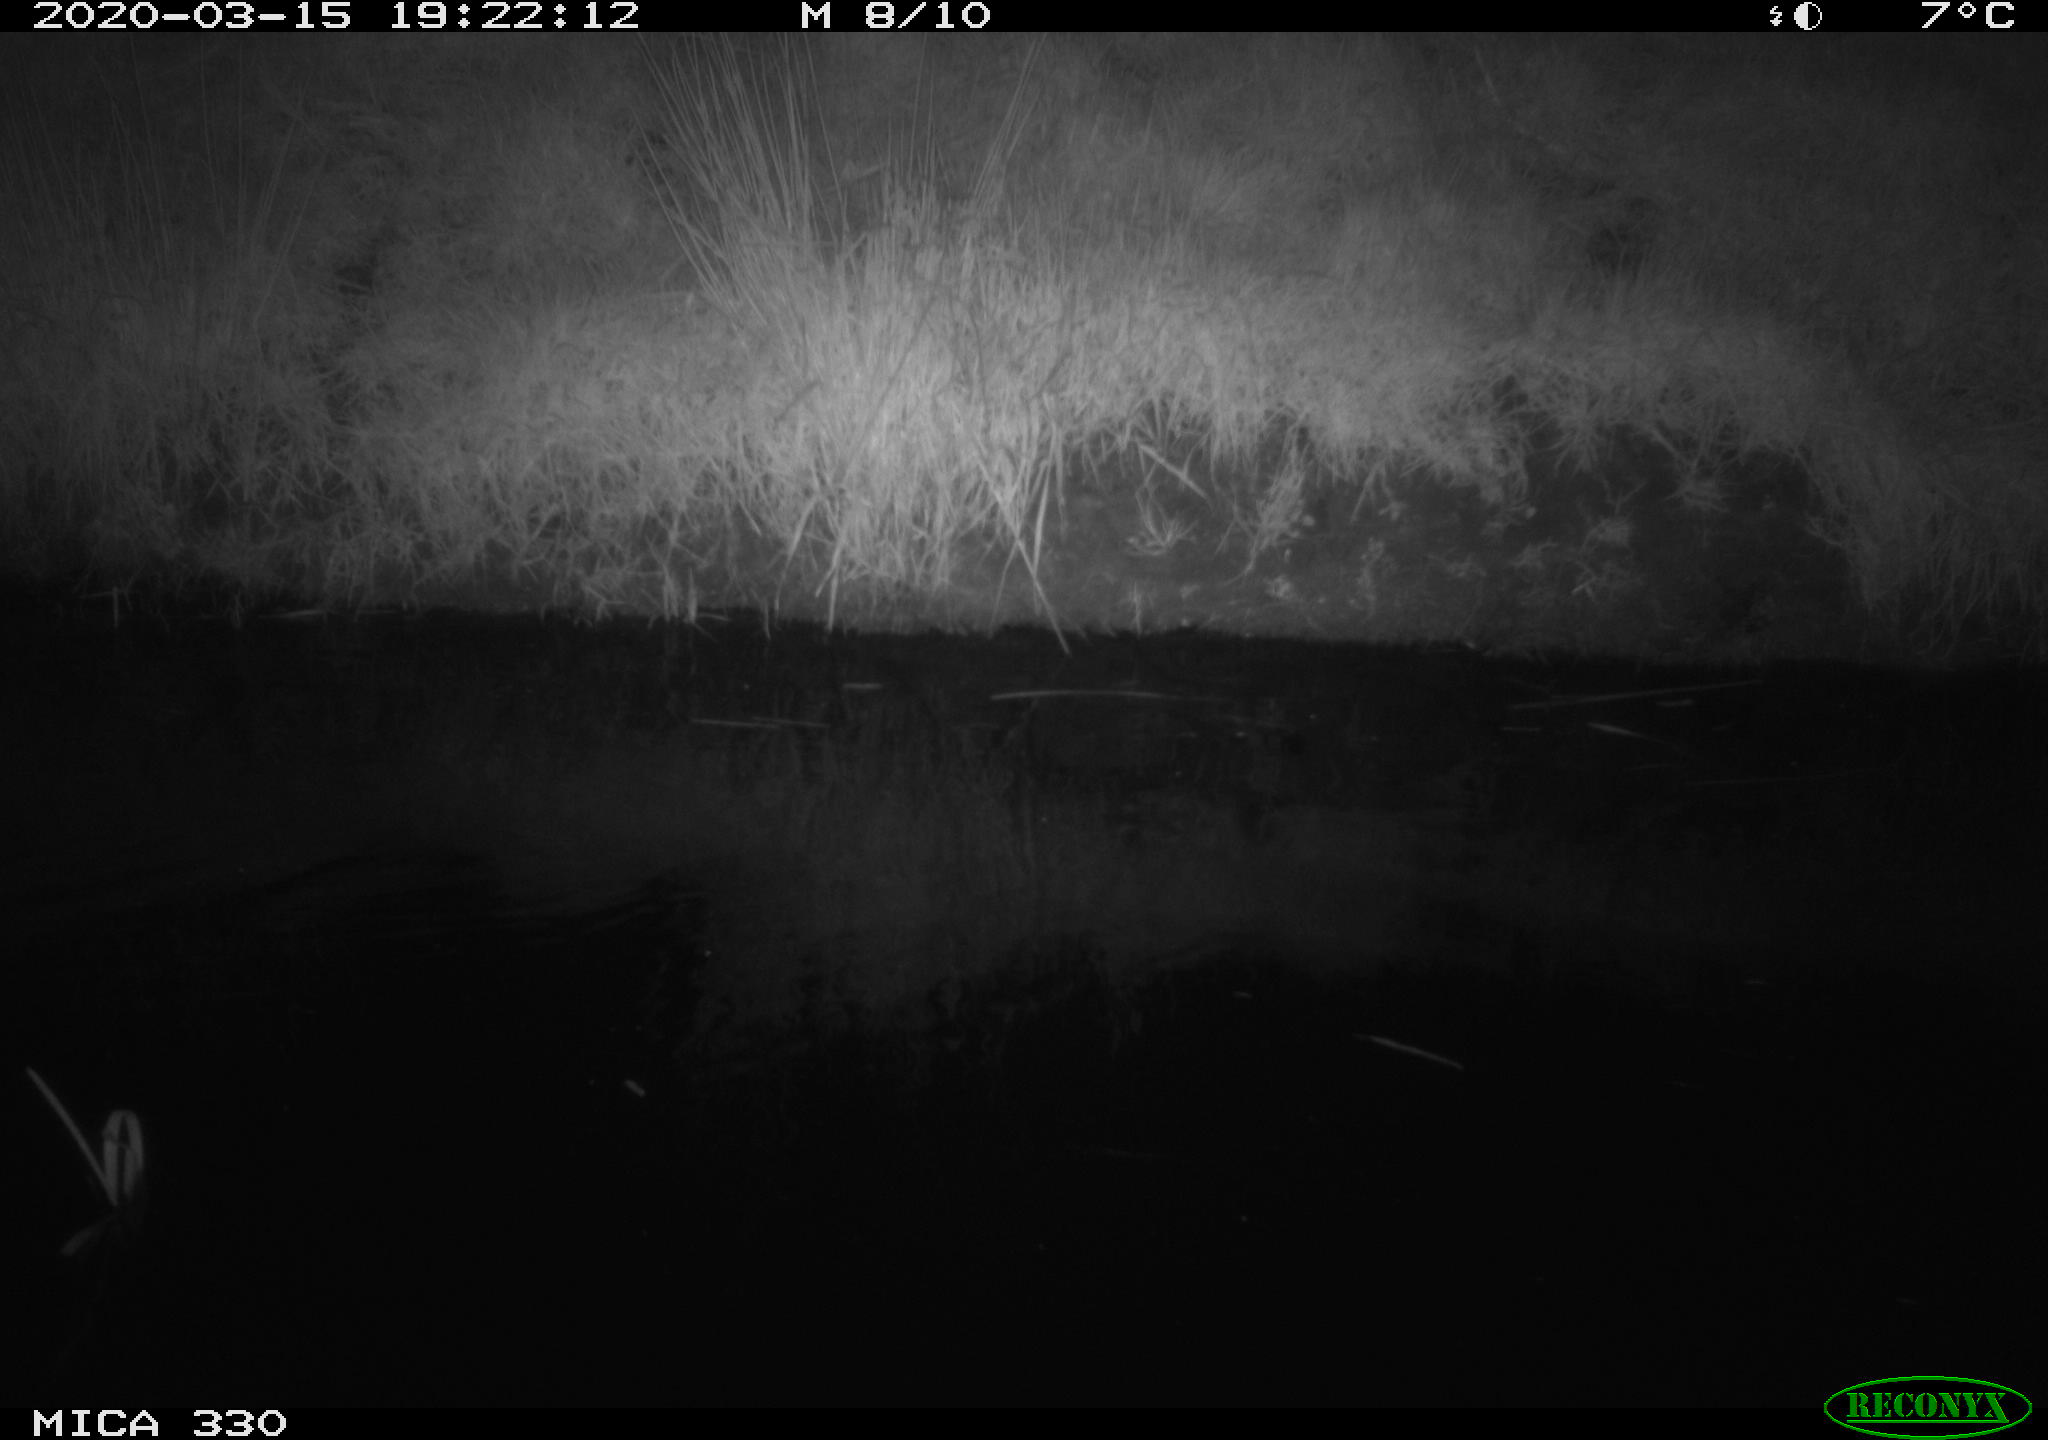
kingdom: Animalia
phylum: Chordata
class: Aves
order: Anseriformes
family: Anatidae
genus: Anas
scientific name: Anas platyrhynchos
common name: Mallard
